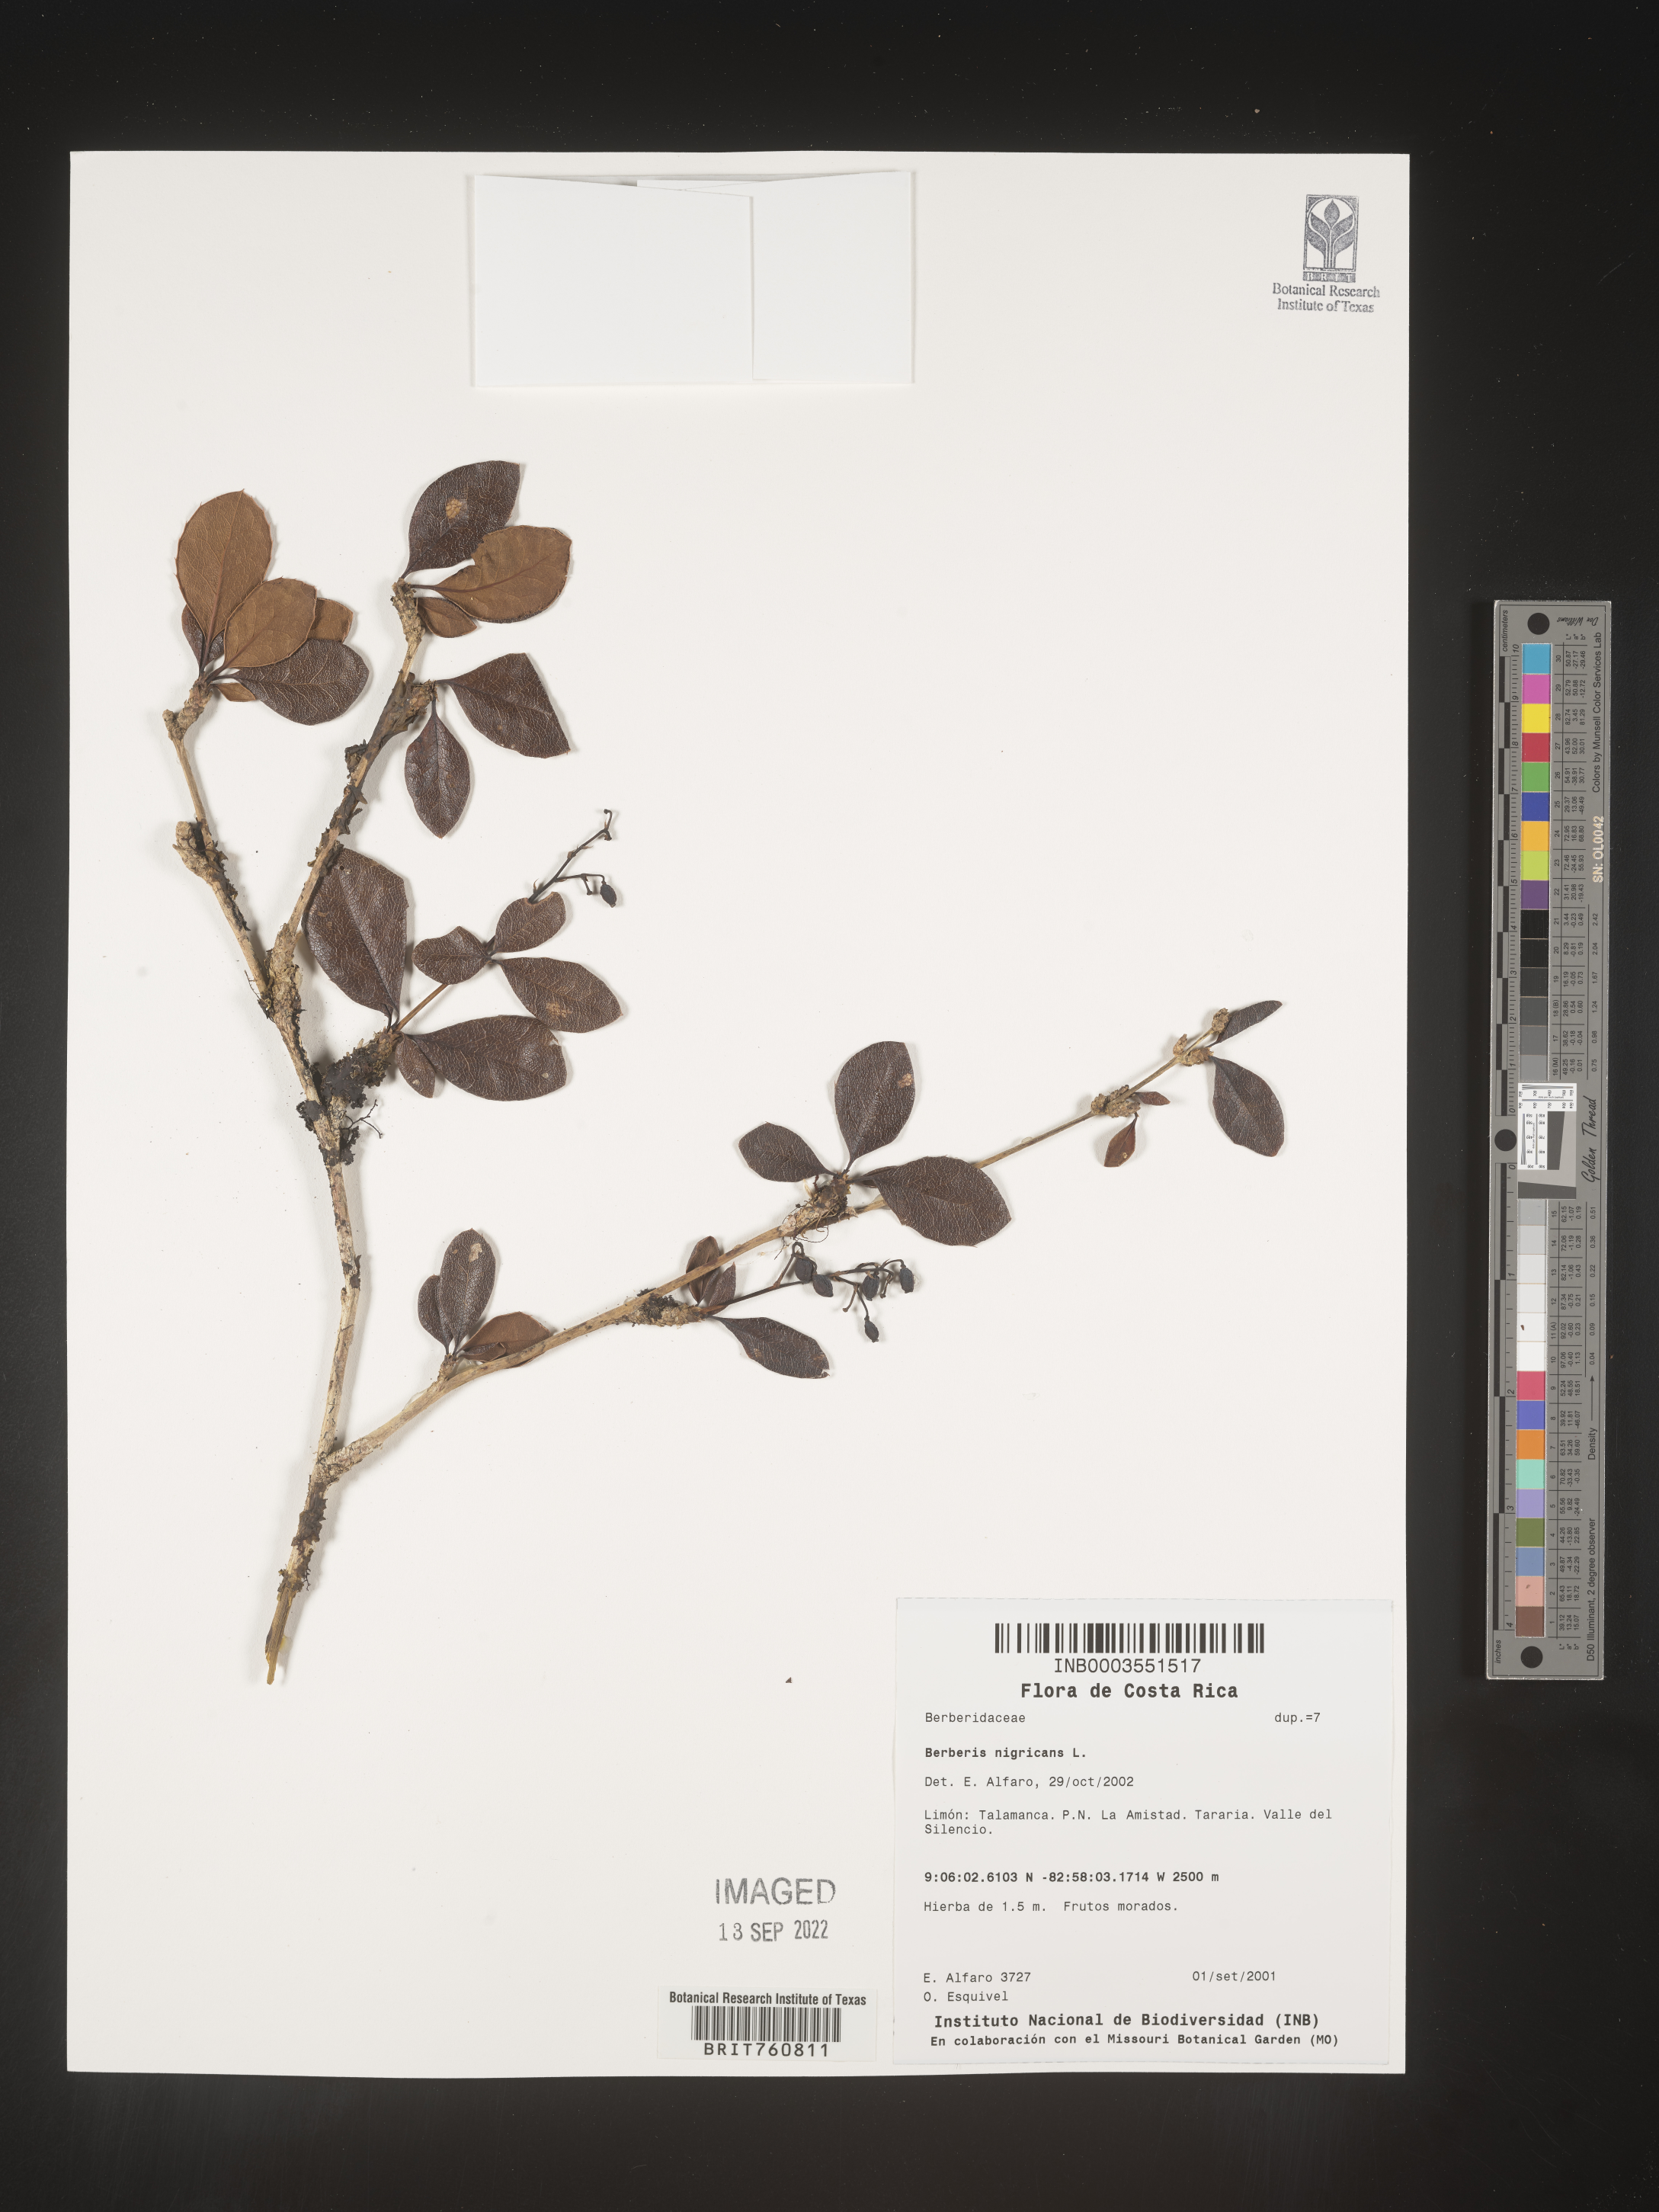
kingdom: Plantae
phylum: Tracheophyta
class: Magnoliopsida
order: Ranunculales
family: Berberidaceae
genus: Berberis
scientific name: Berberis
